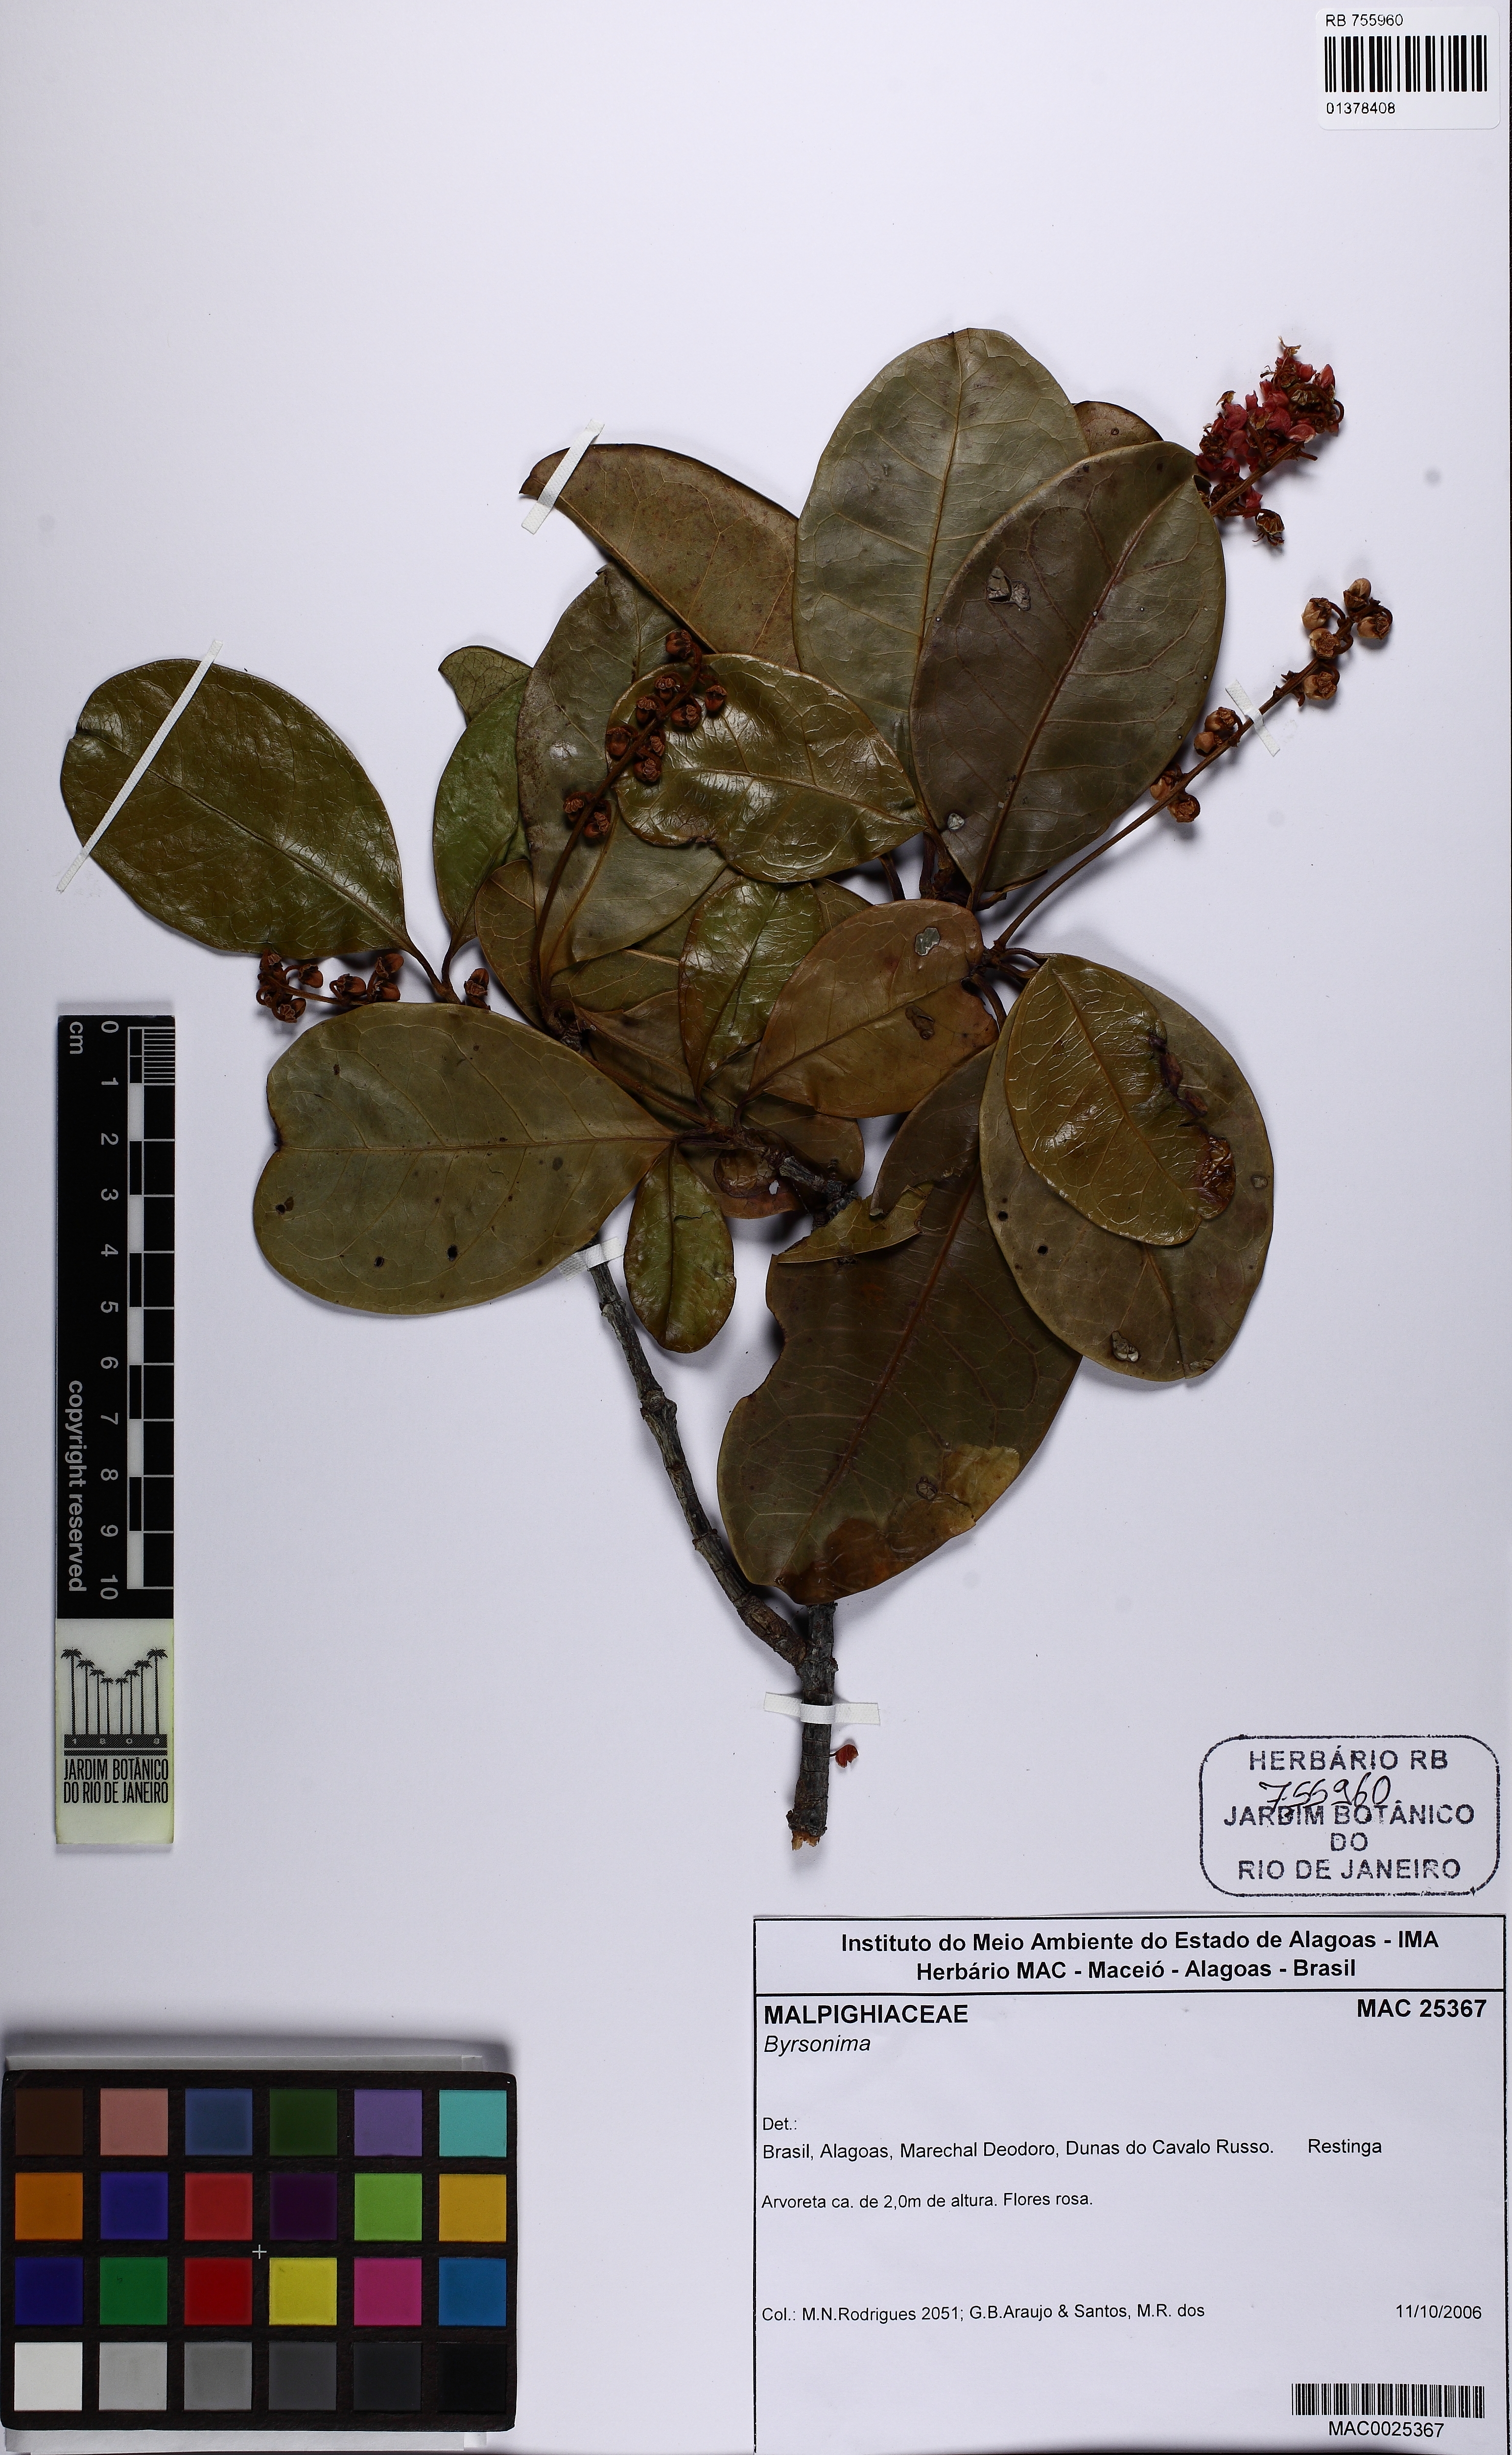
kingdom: Plantae
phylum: Tracheophyta
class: Magnoliopsida
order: Malpighiales
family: Malpighiaceae
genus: Byrsonima
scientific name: Byrsonima
